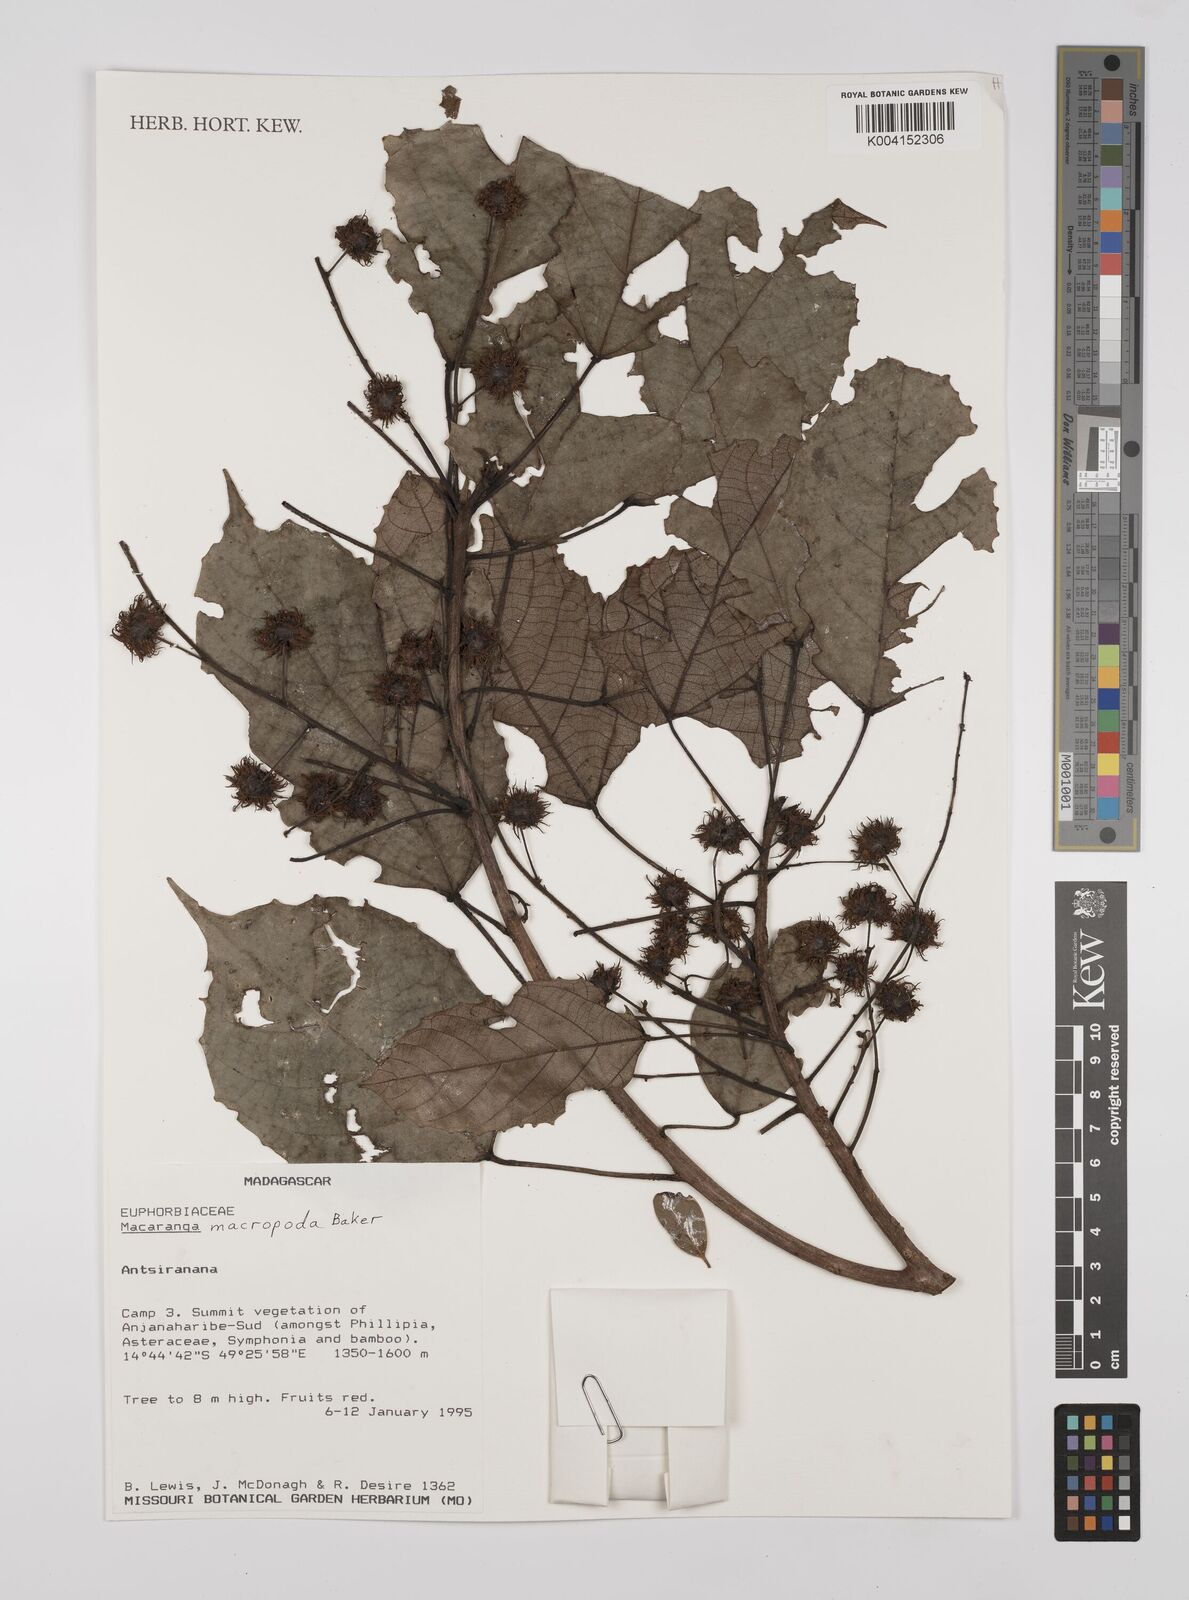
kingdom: Plantae
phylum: Tracheophyta
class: Magnoliopsida
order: Malpighiales
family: Euphorbiaceae
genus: Macaranga
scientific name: Macaranga macropoda
